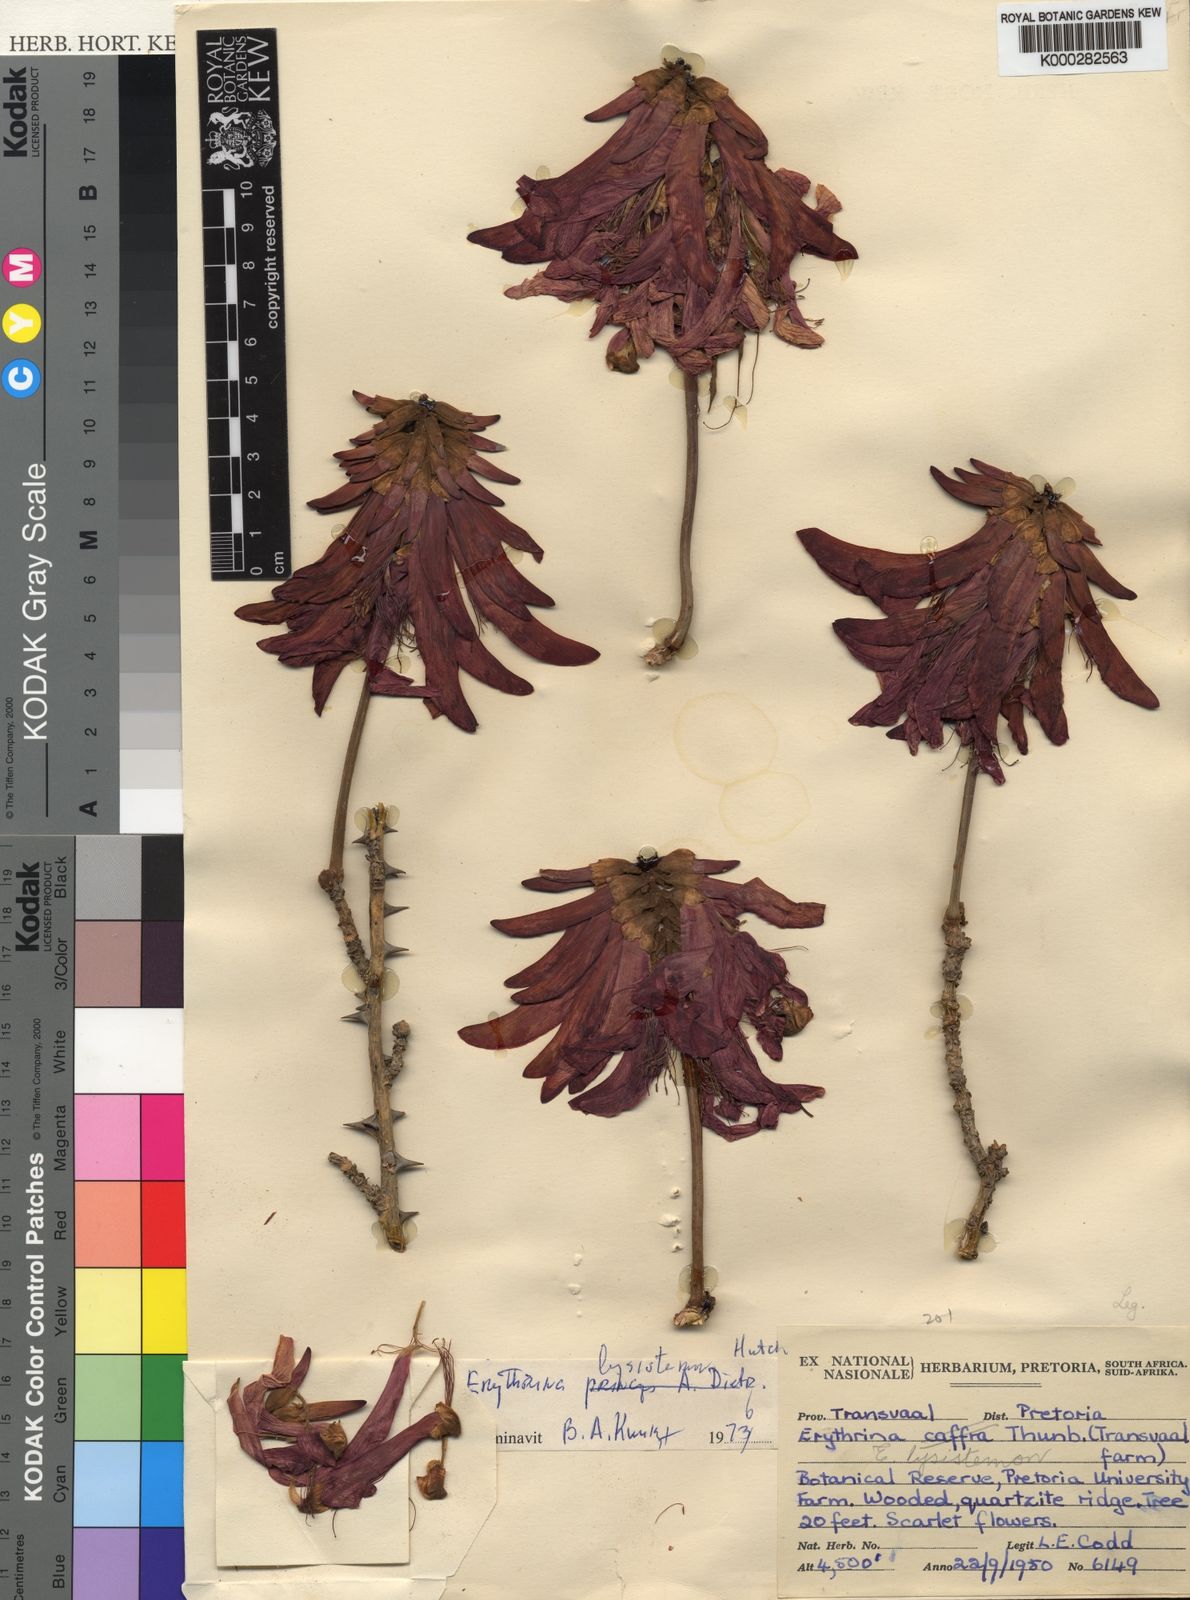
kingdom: Plantae
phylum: Tracheophyta
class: Magnoliopsida
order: Fabales
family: Fabaceae
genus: Erythrina
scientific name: Erythrina lysistemon
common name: Common coral tree
